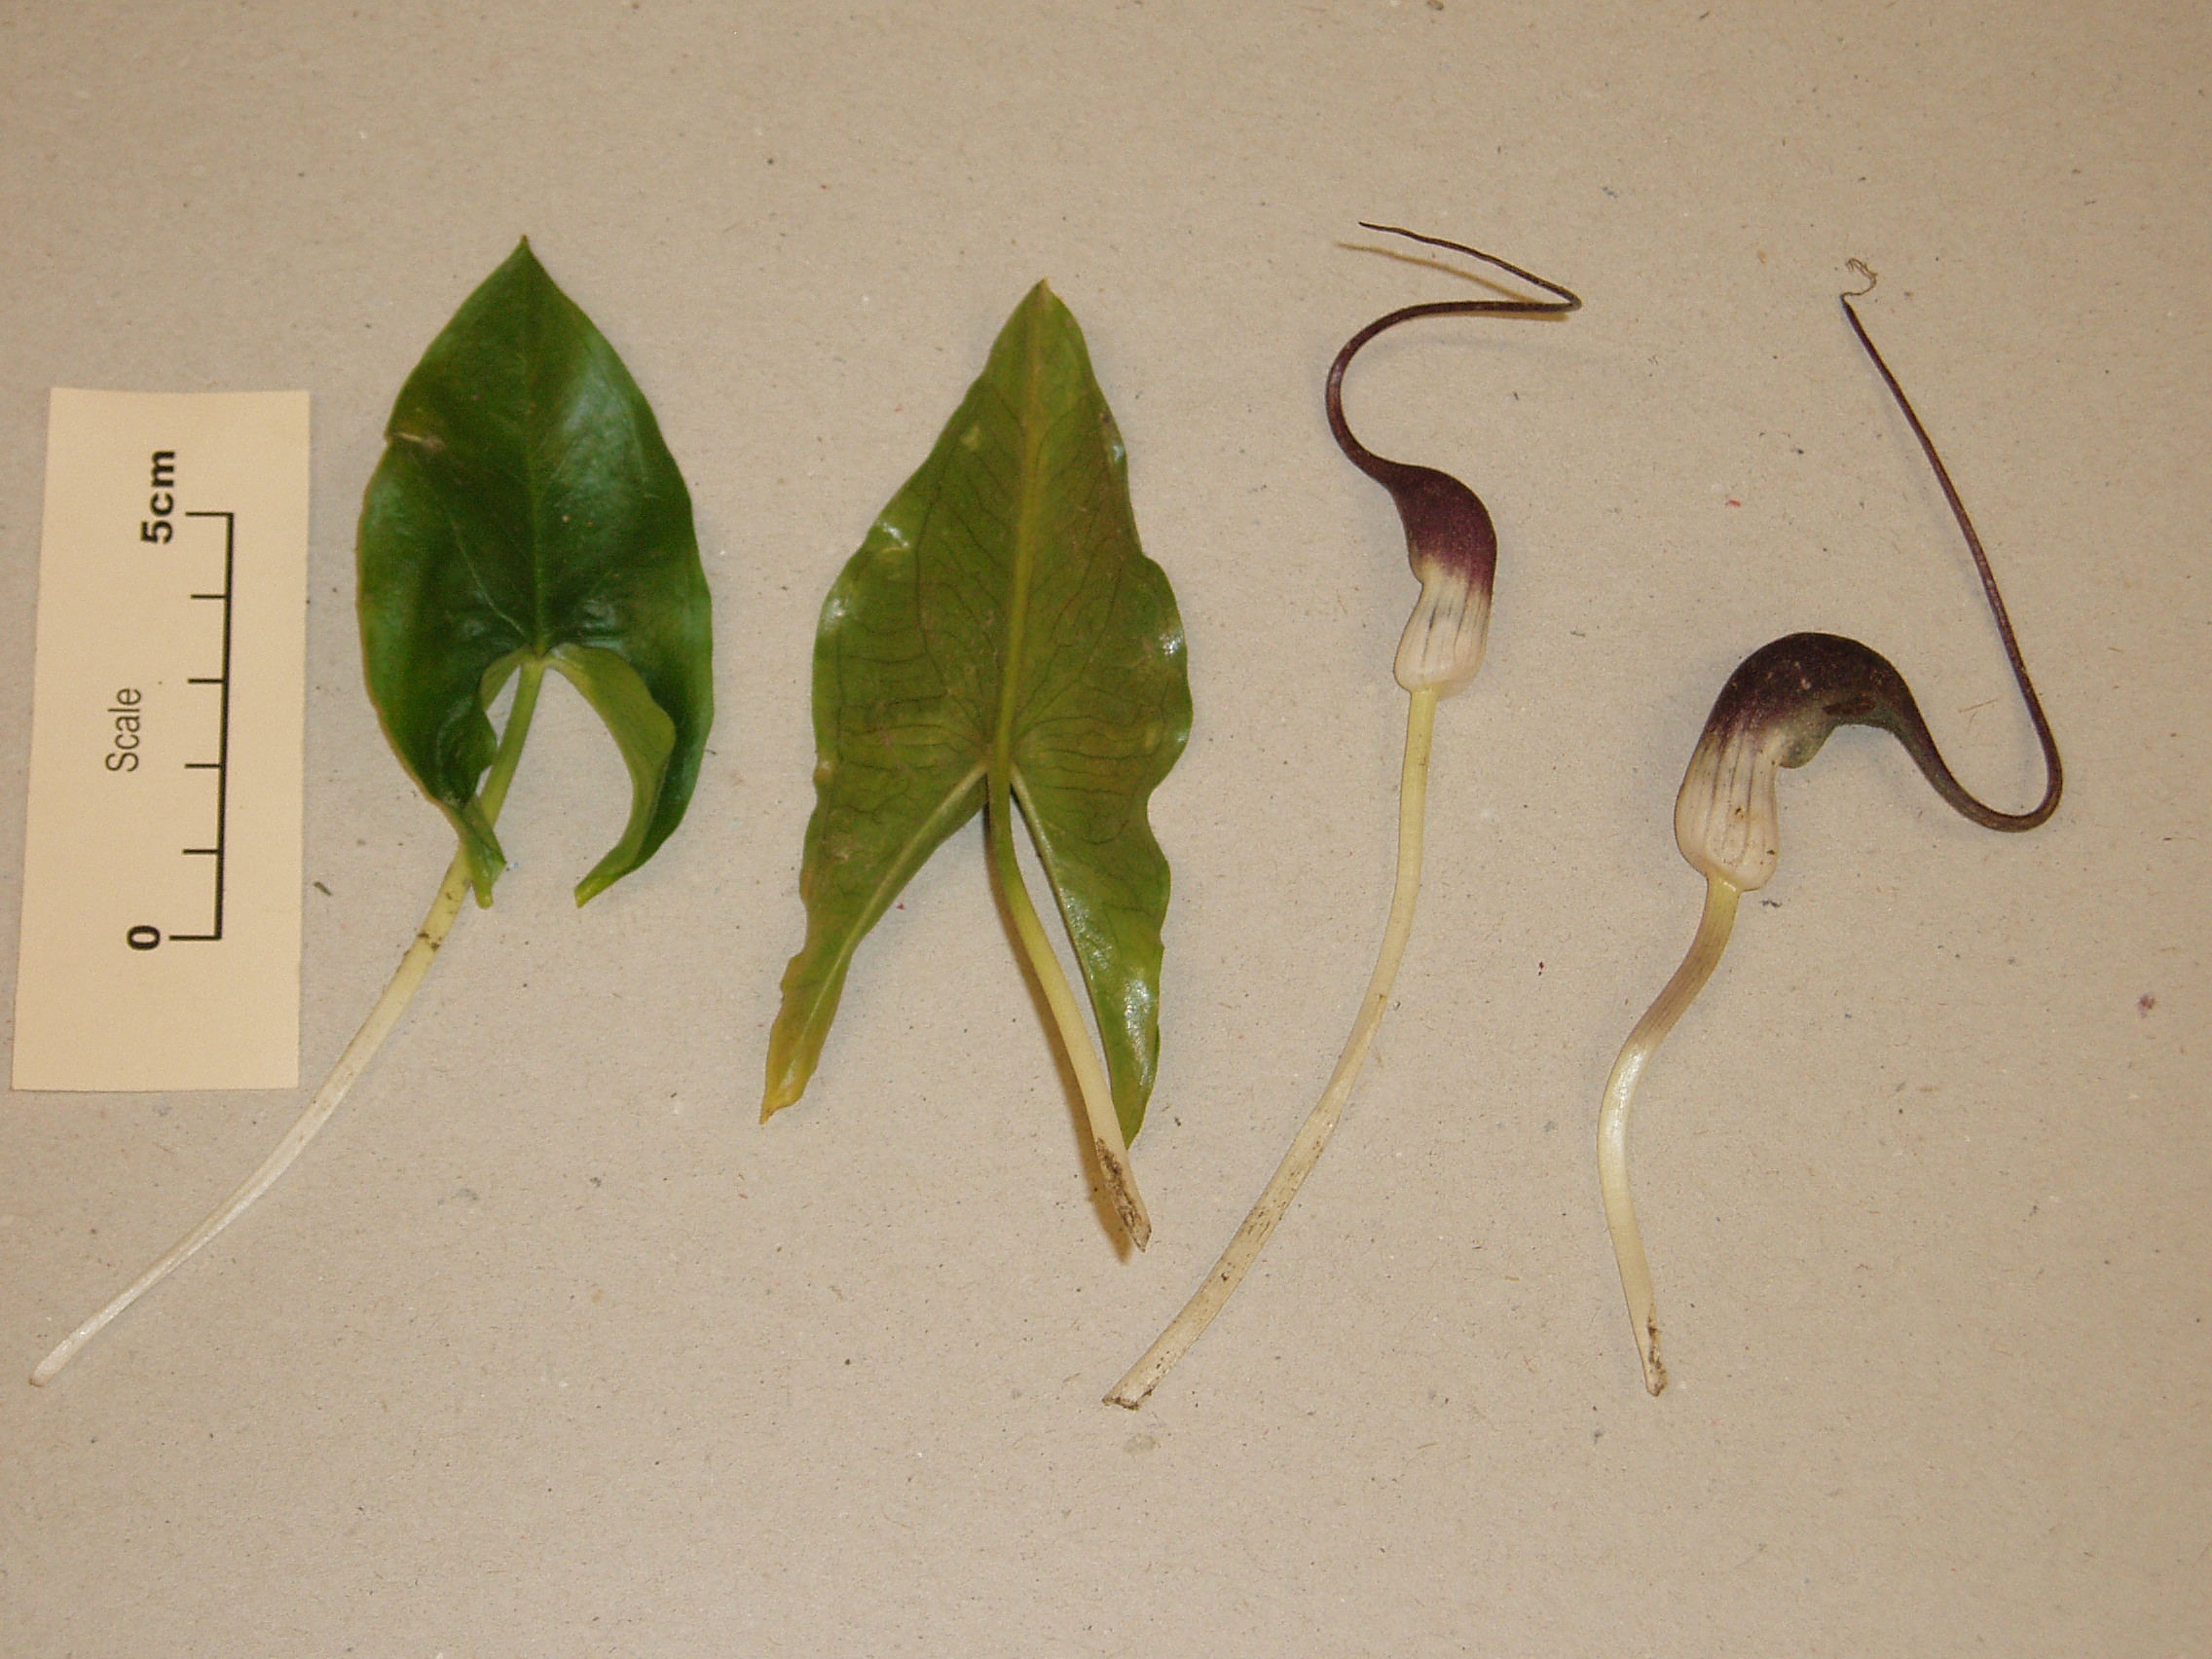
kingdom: Plantae
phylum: Tracheophyta
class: Liliopsida
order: Alismatales
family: Araceae
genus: Arisarum
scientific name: Arisarum proboscideum
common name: Mousetailplant
